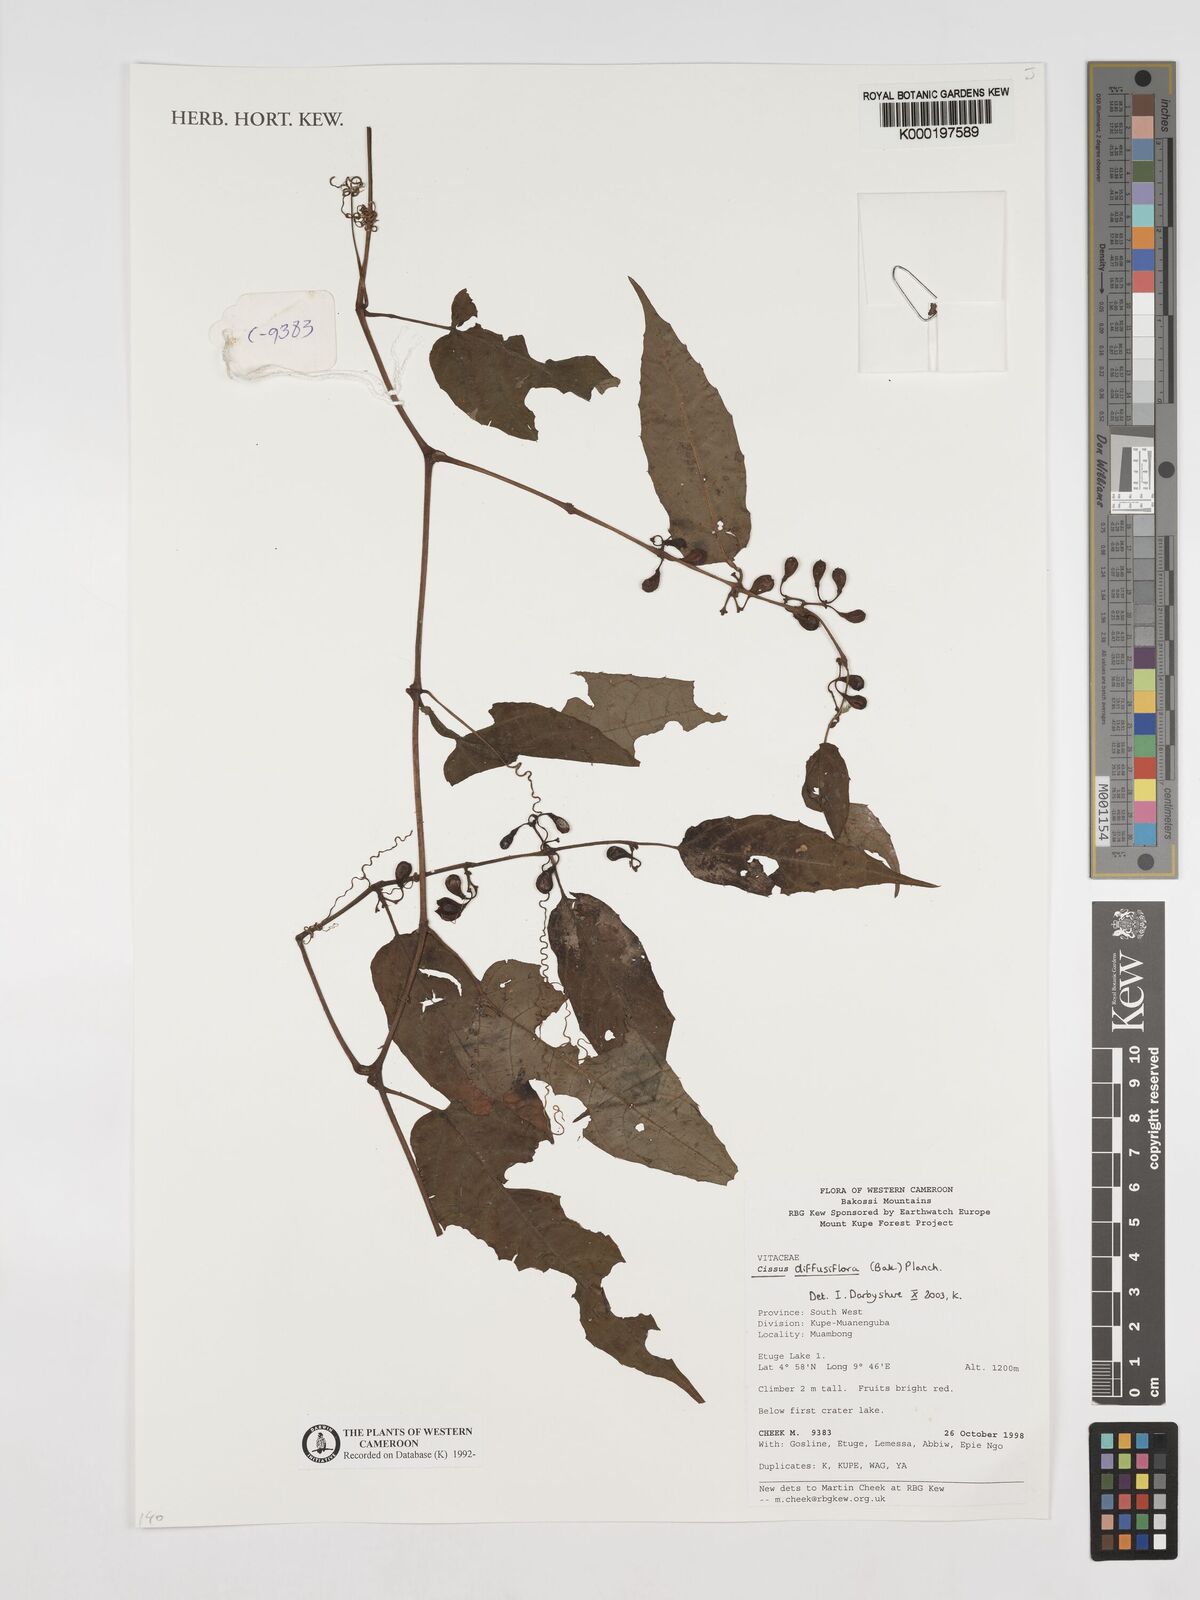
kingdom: Plantae
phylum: Tracheophyta
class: Magnoliopsida
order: Vitales
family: Vitaceae
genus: Cissus
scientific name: Cissus diffusiflora
